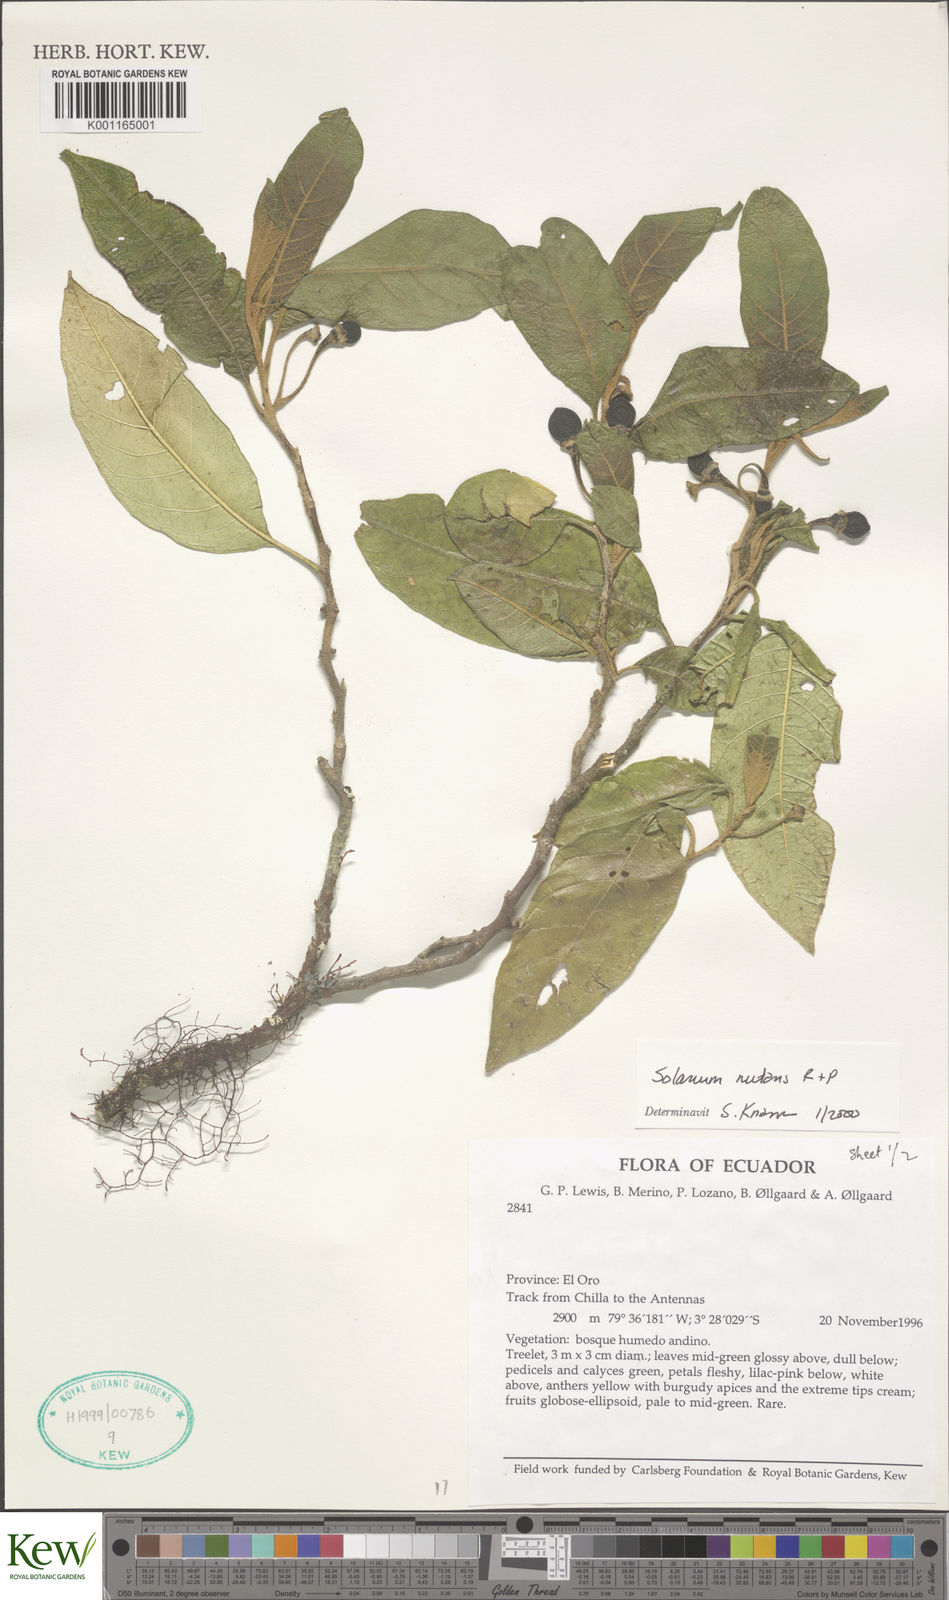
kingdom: Plantae
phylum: Tracheophyta
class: Magnoliopsida
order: Solanales
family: Solanaceae
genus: Solanum
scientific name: Solanum nutans
